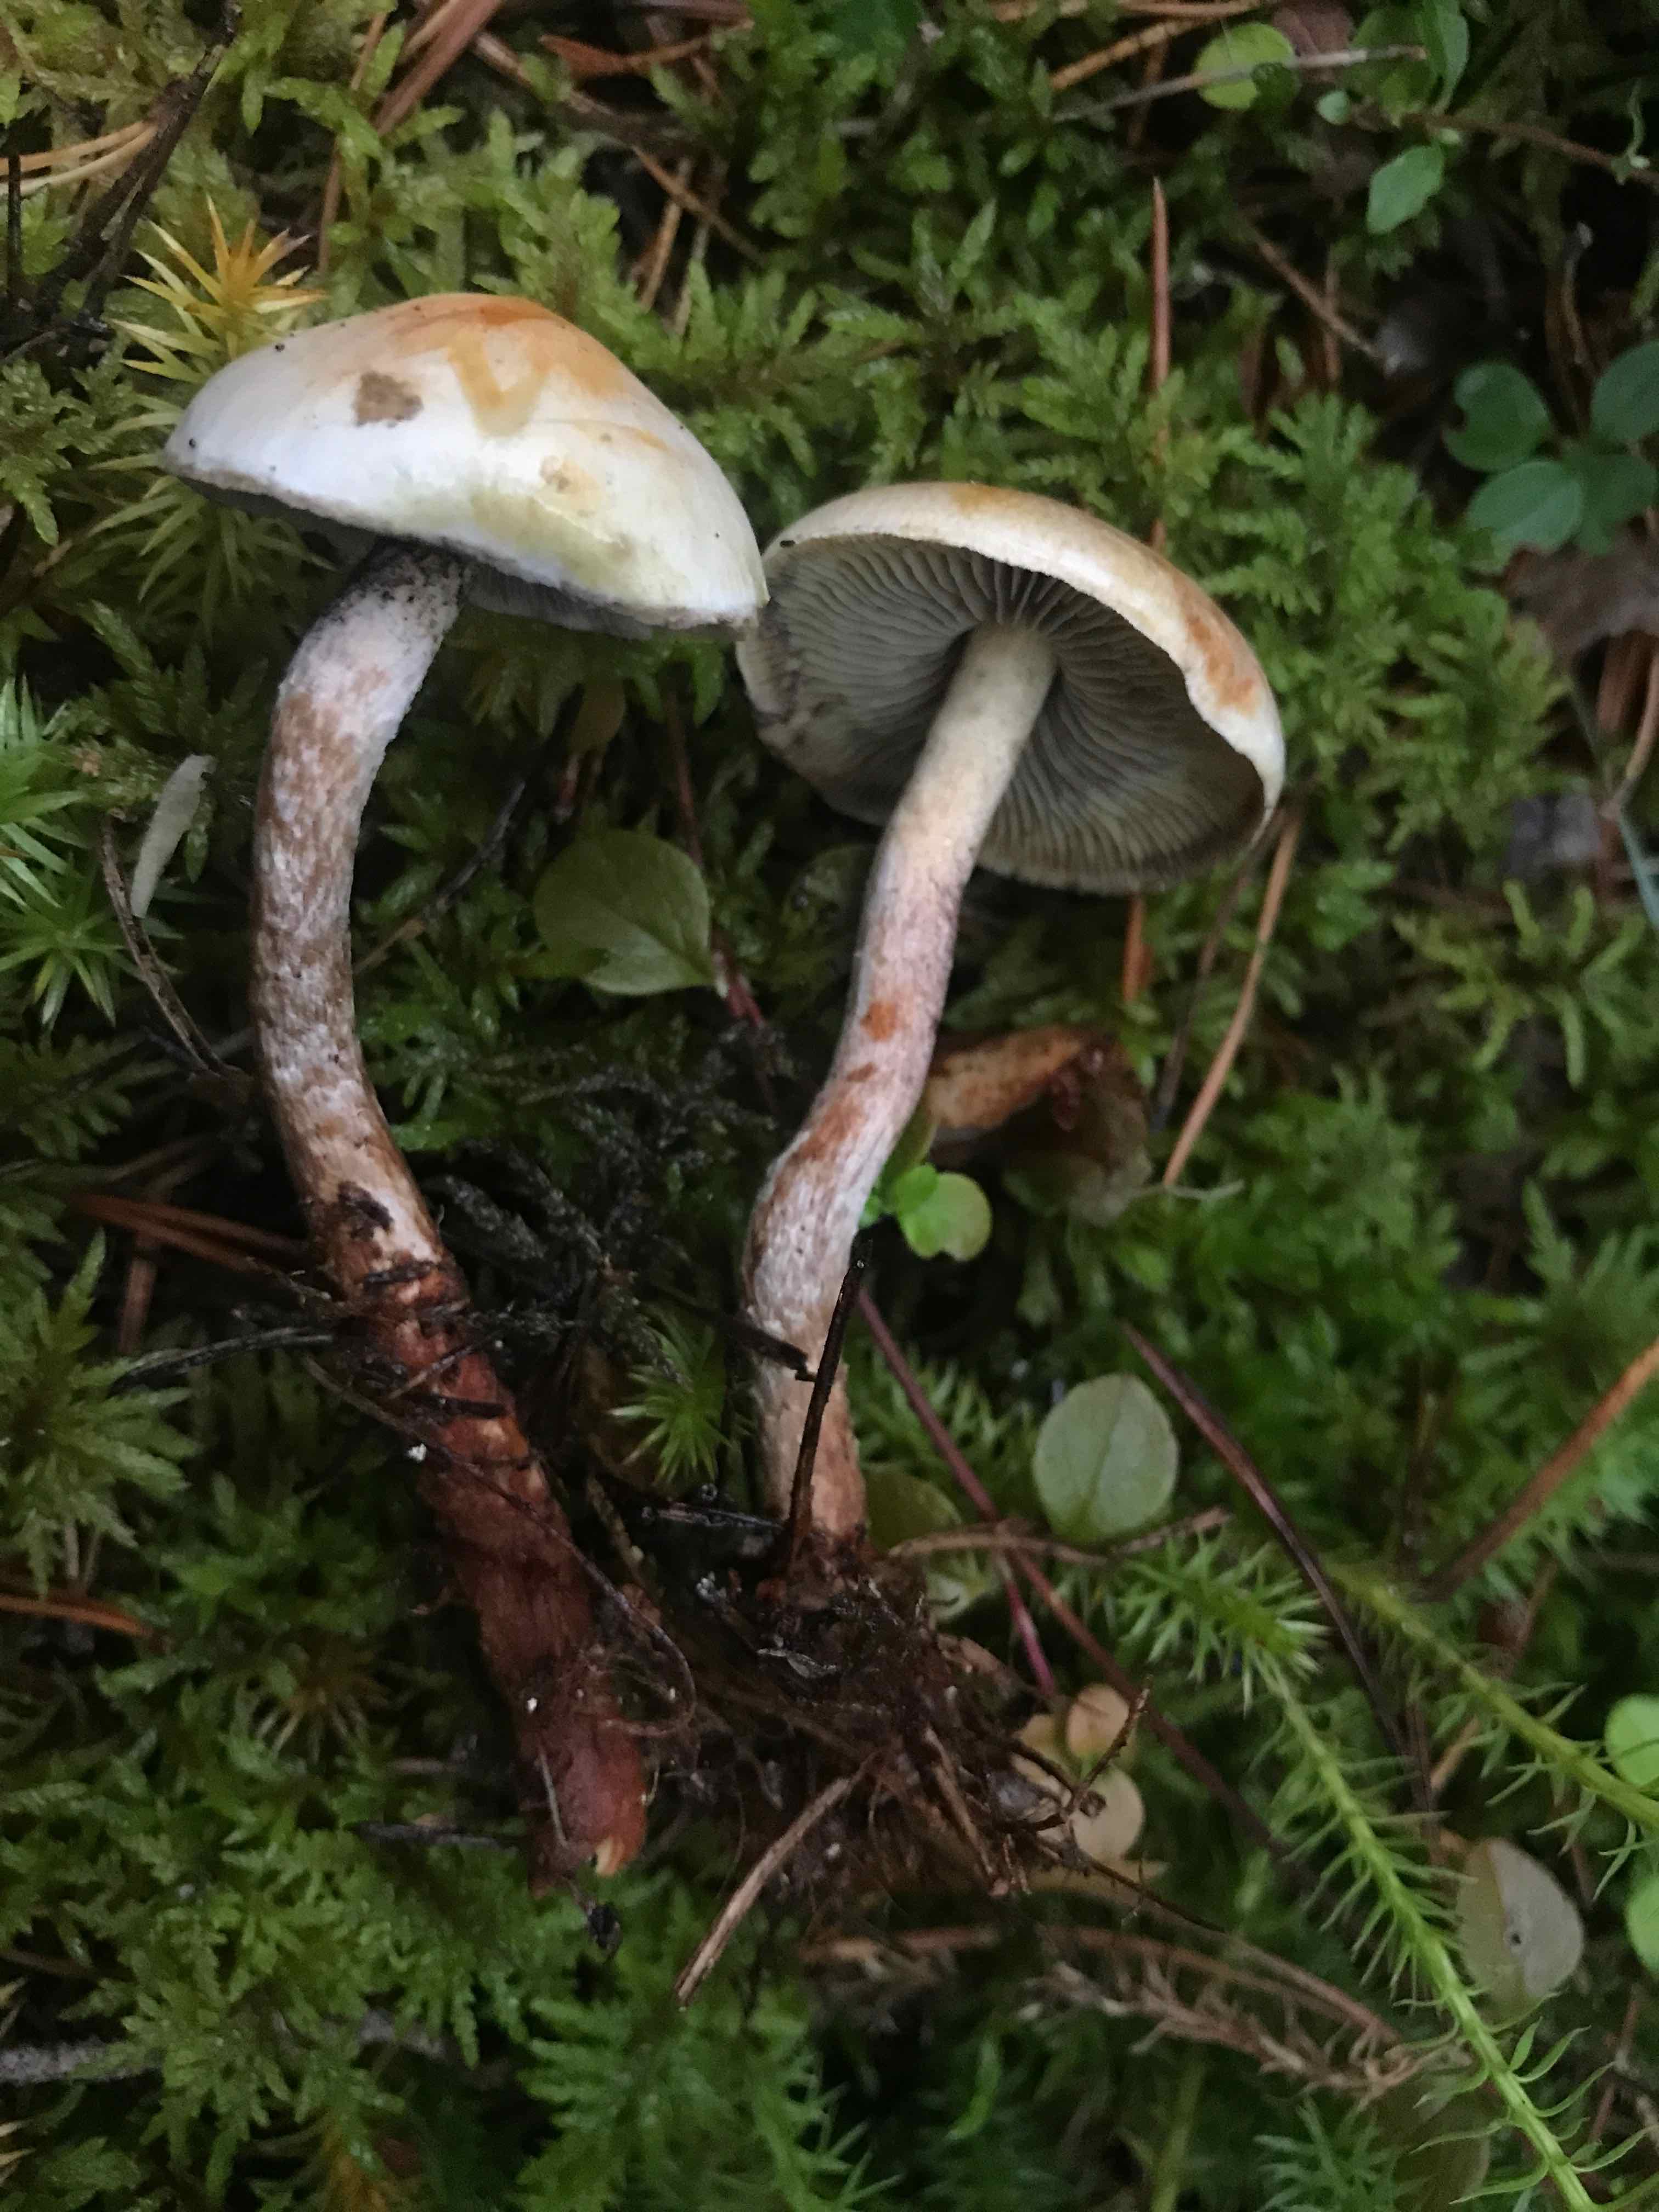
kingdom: Fungi
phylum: Basidiomycota
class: Agaricomycetes
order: Agaricales
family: Strophariaceae
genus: Hypholoma
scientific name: Hypholoma fasciculare
